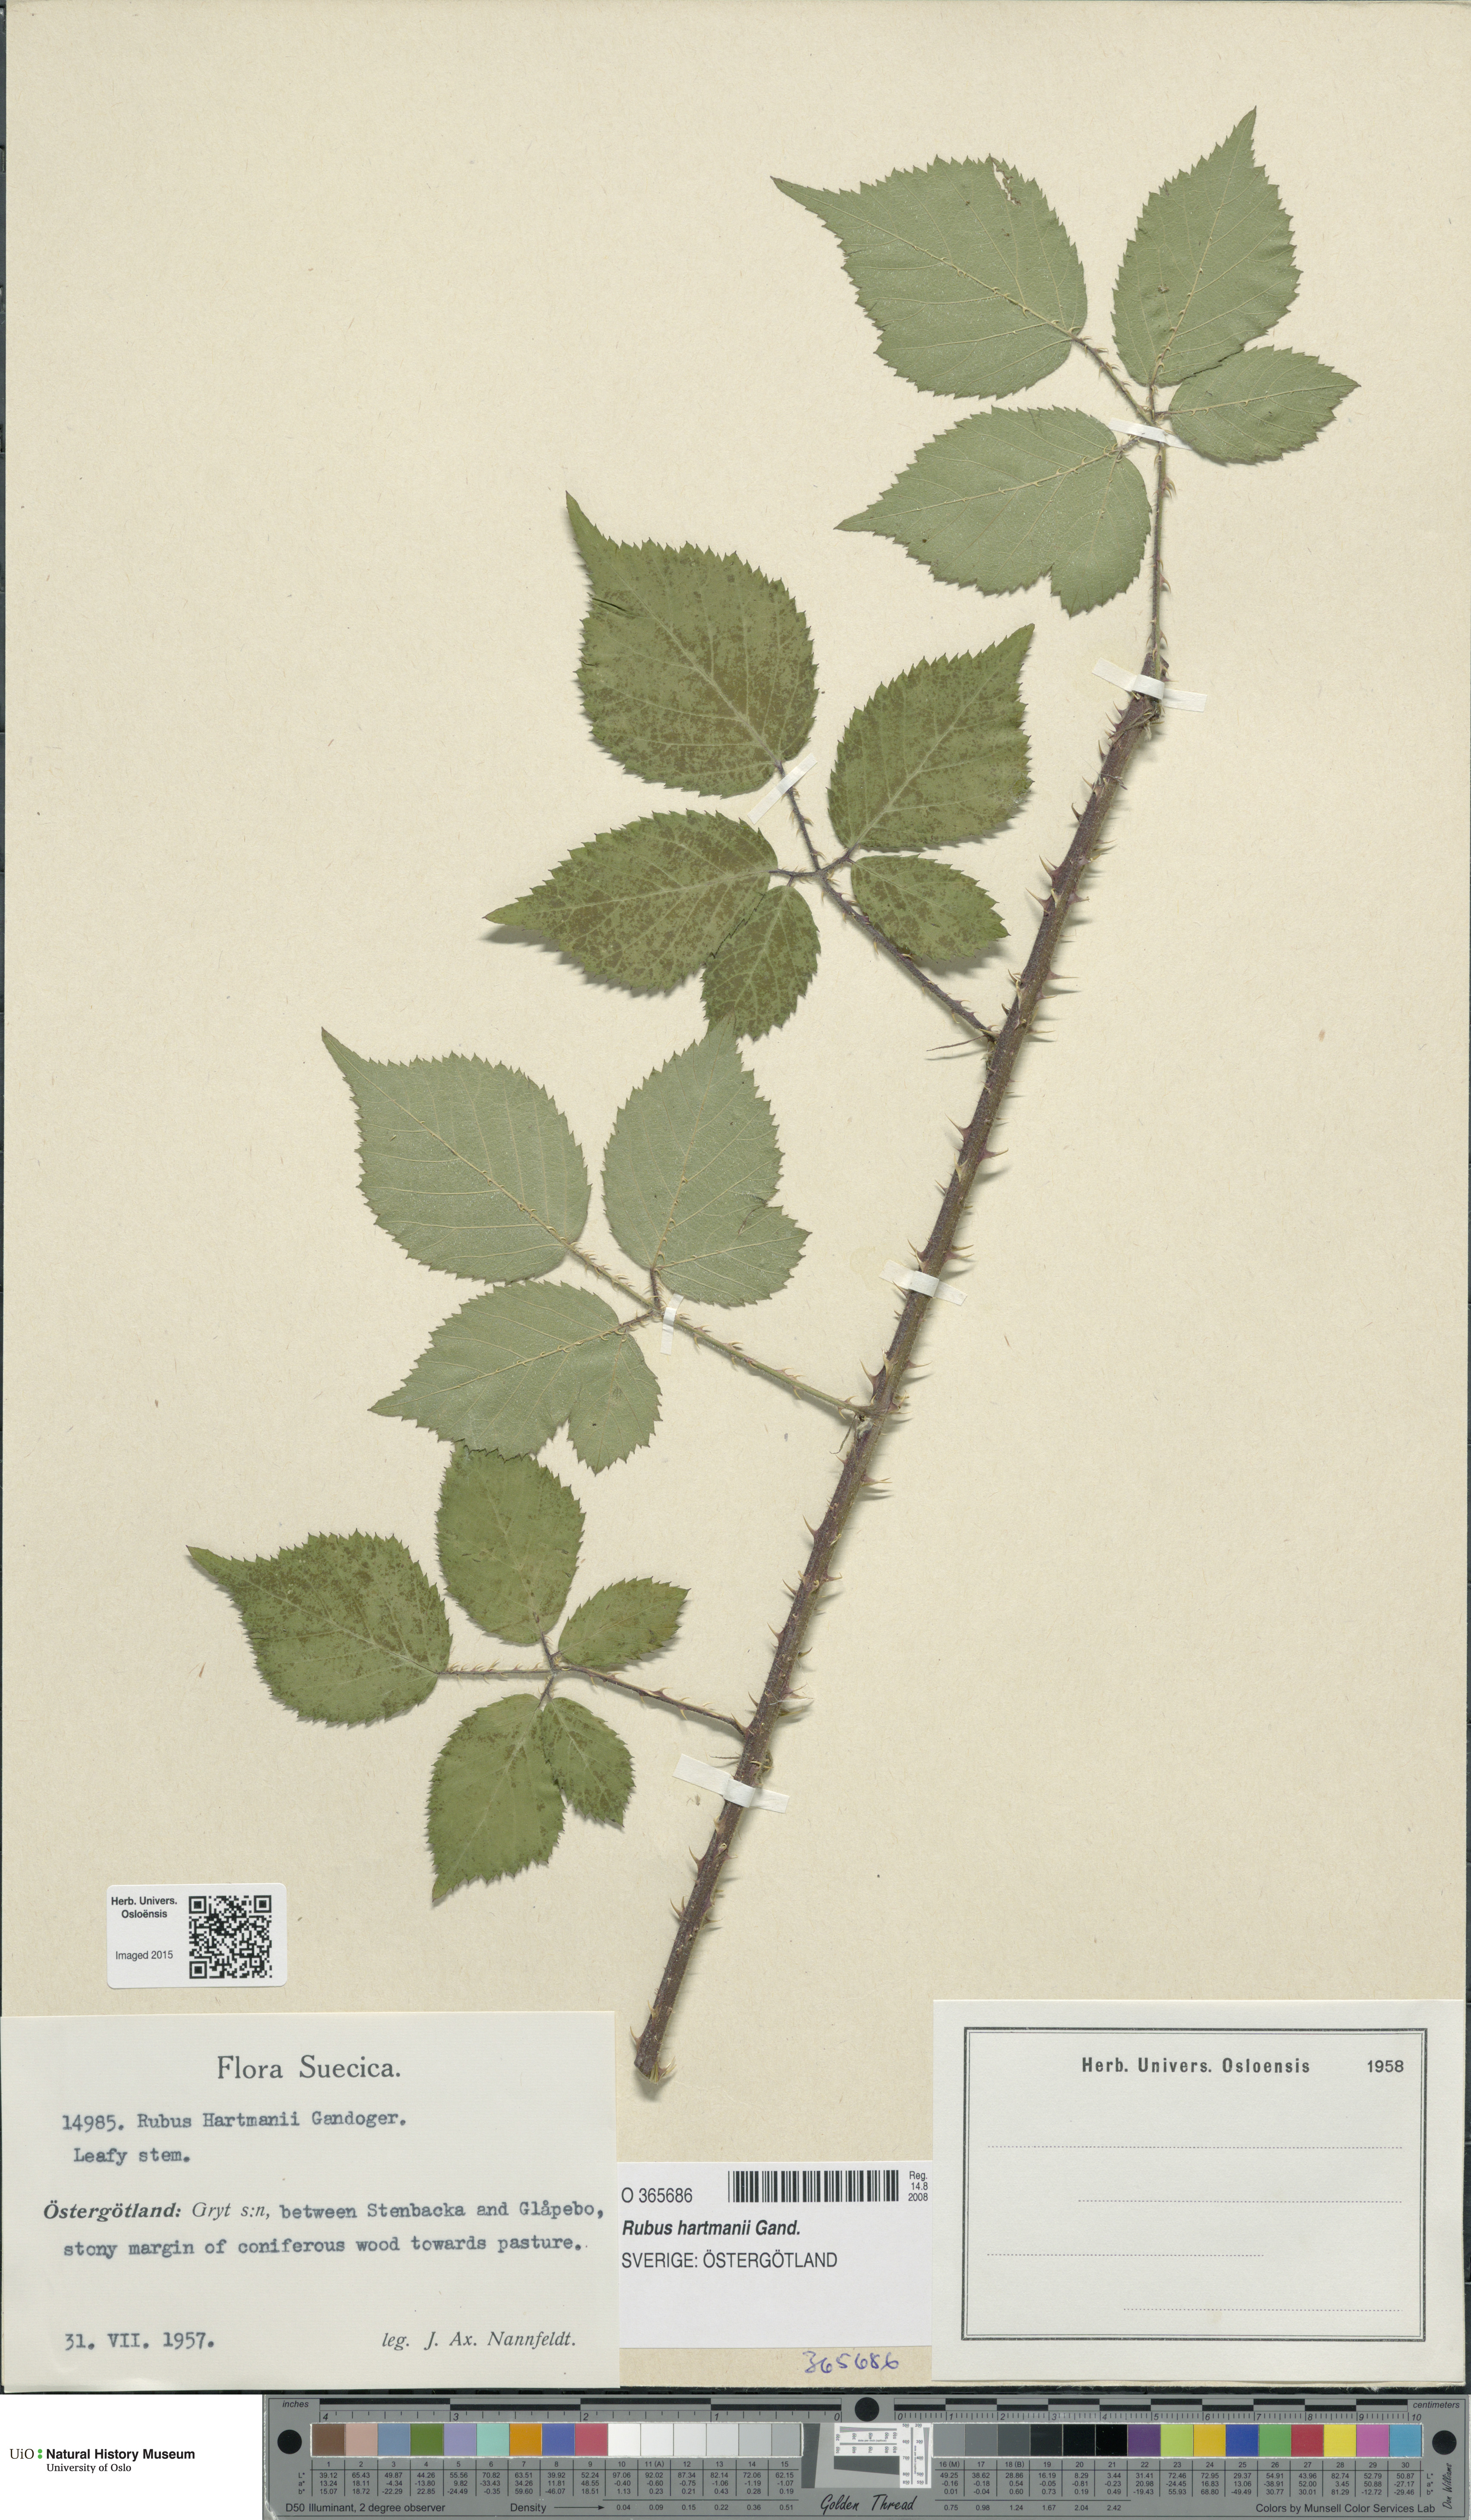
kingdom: Plantae
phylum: Tracheophyta
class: Magnoliopsida
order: Rosales
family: Rosaceae
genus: Rubus
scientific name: Rubus hartmanii
